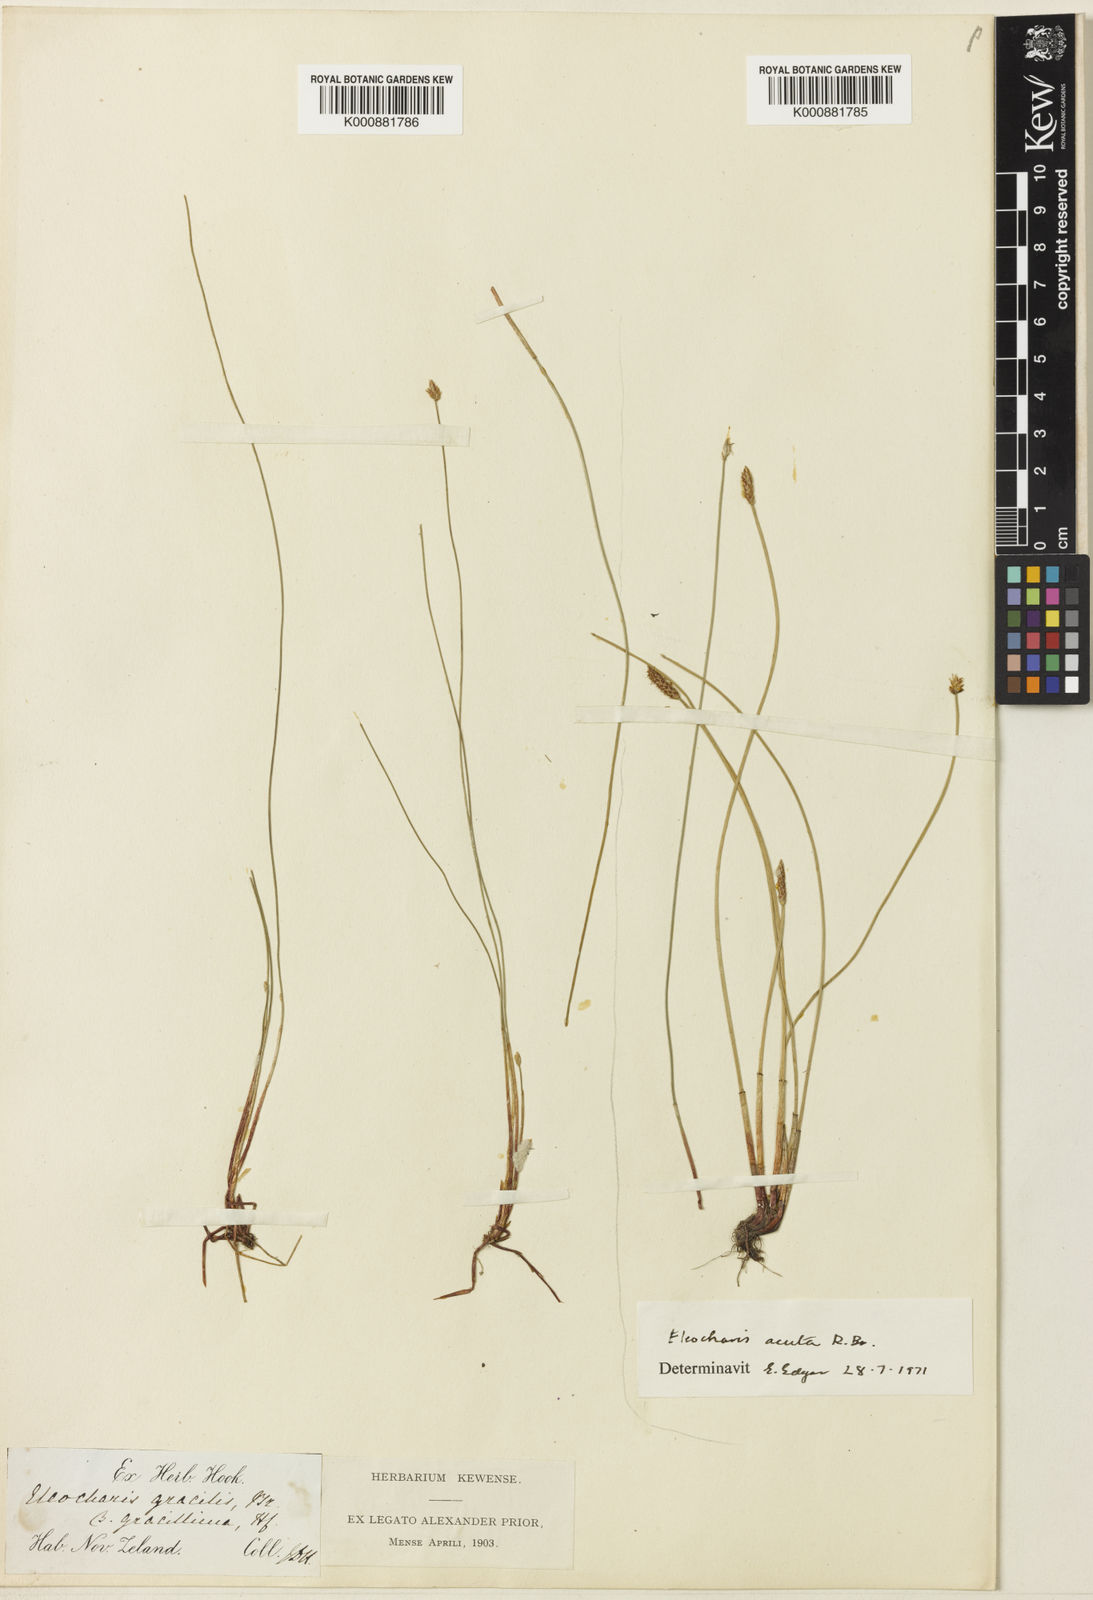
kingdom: Plantae
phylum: Tracheophyta
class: Liliopsida
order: Poales
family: Cyperaceae
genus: Eleocharis
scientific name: Eleocharis gracilis
